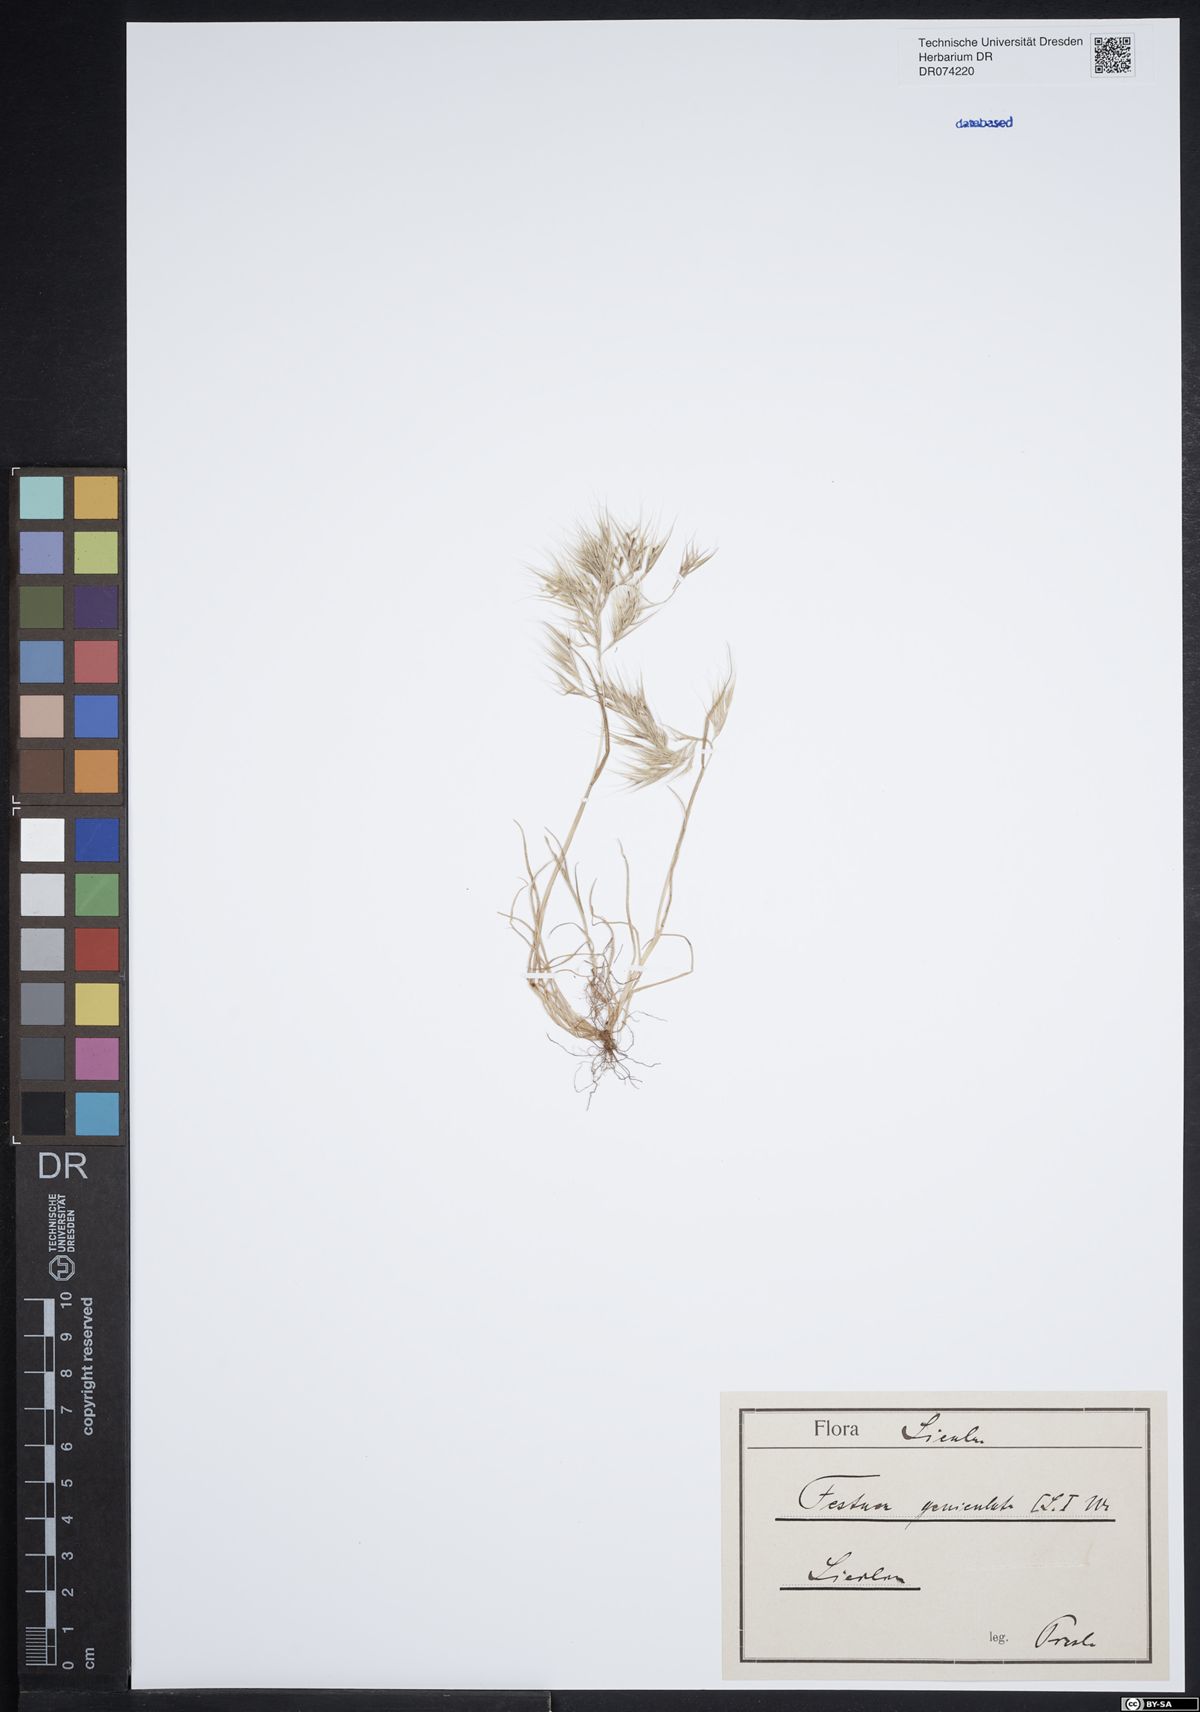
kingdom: Plantae
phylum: Tracheophyta
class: Liliopsida
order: Poales
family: Poaceae
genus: Festuca
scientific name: Festuca geniculata
